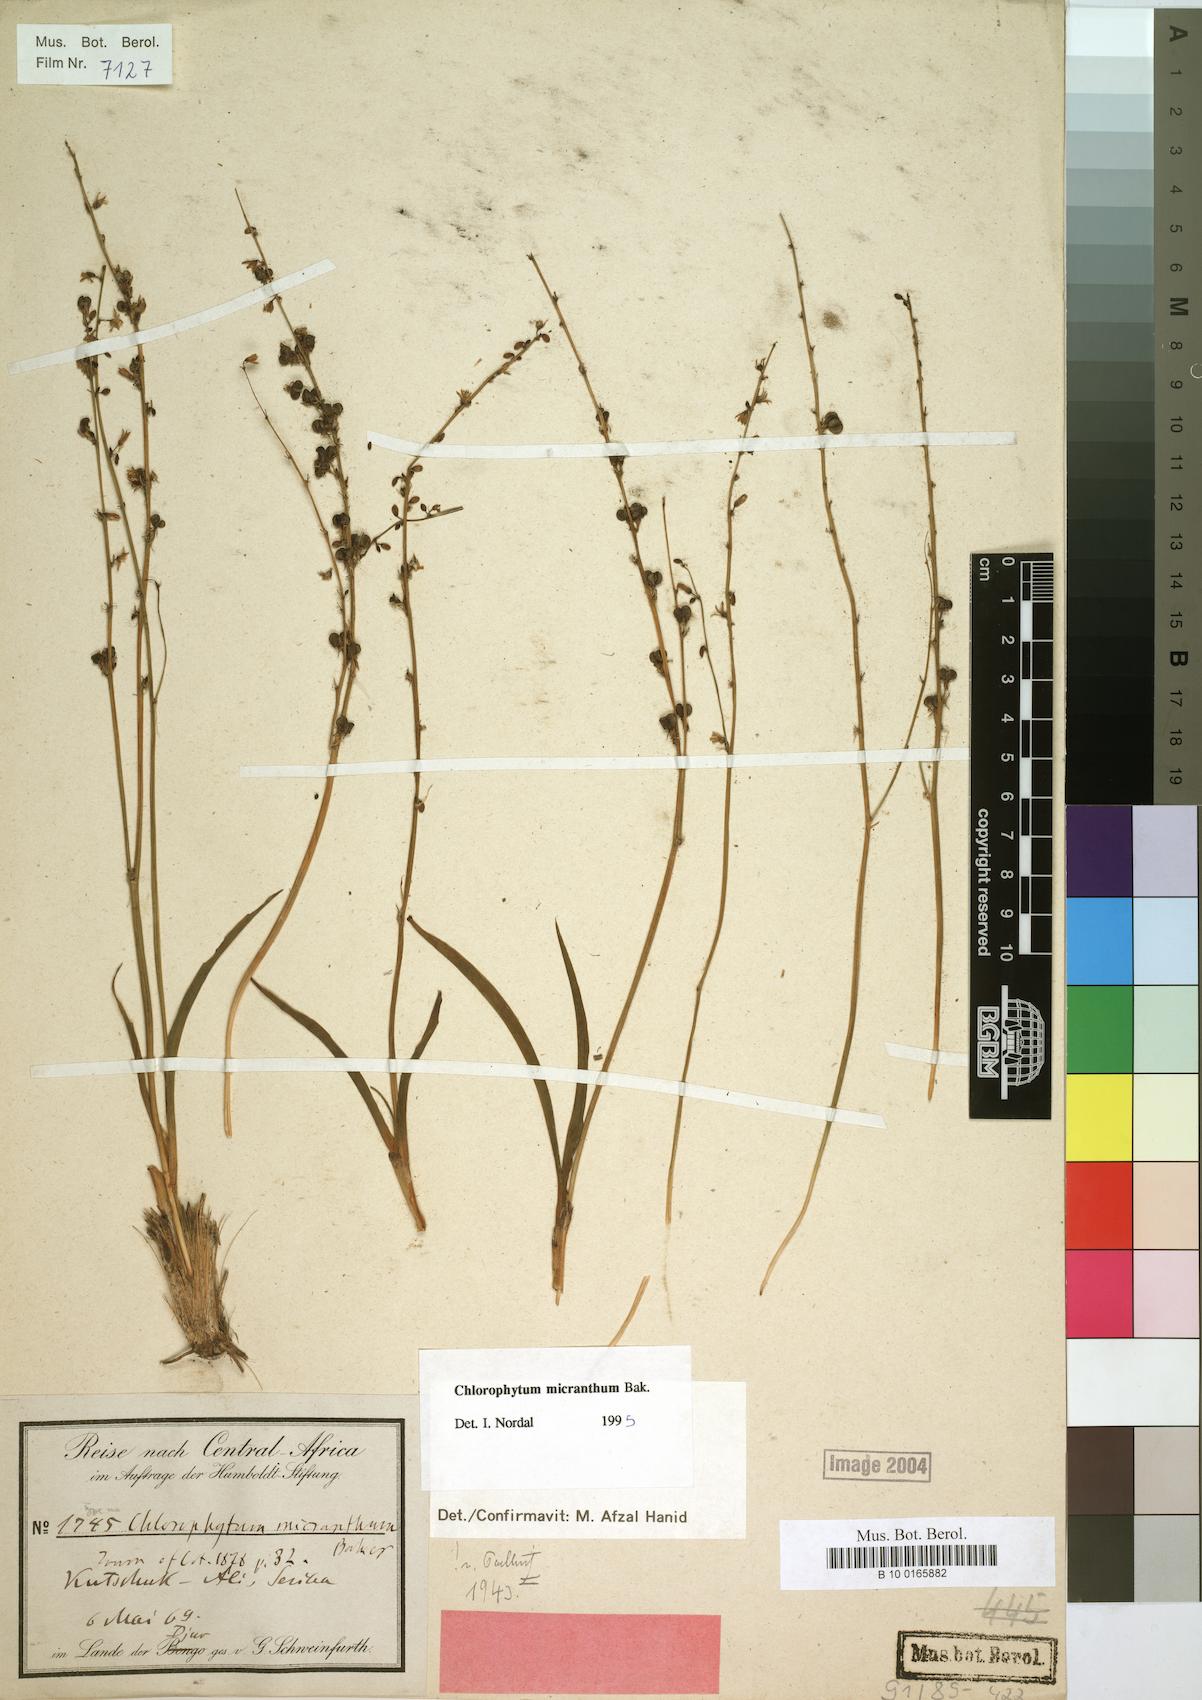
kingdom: Plantae
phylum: Tracheophyta
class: Liliopsida
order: Asparagales
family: Asparagaceae
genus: Chlorophytum
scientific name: Chlorophytum gallabatense
